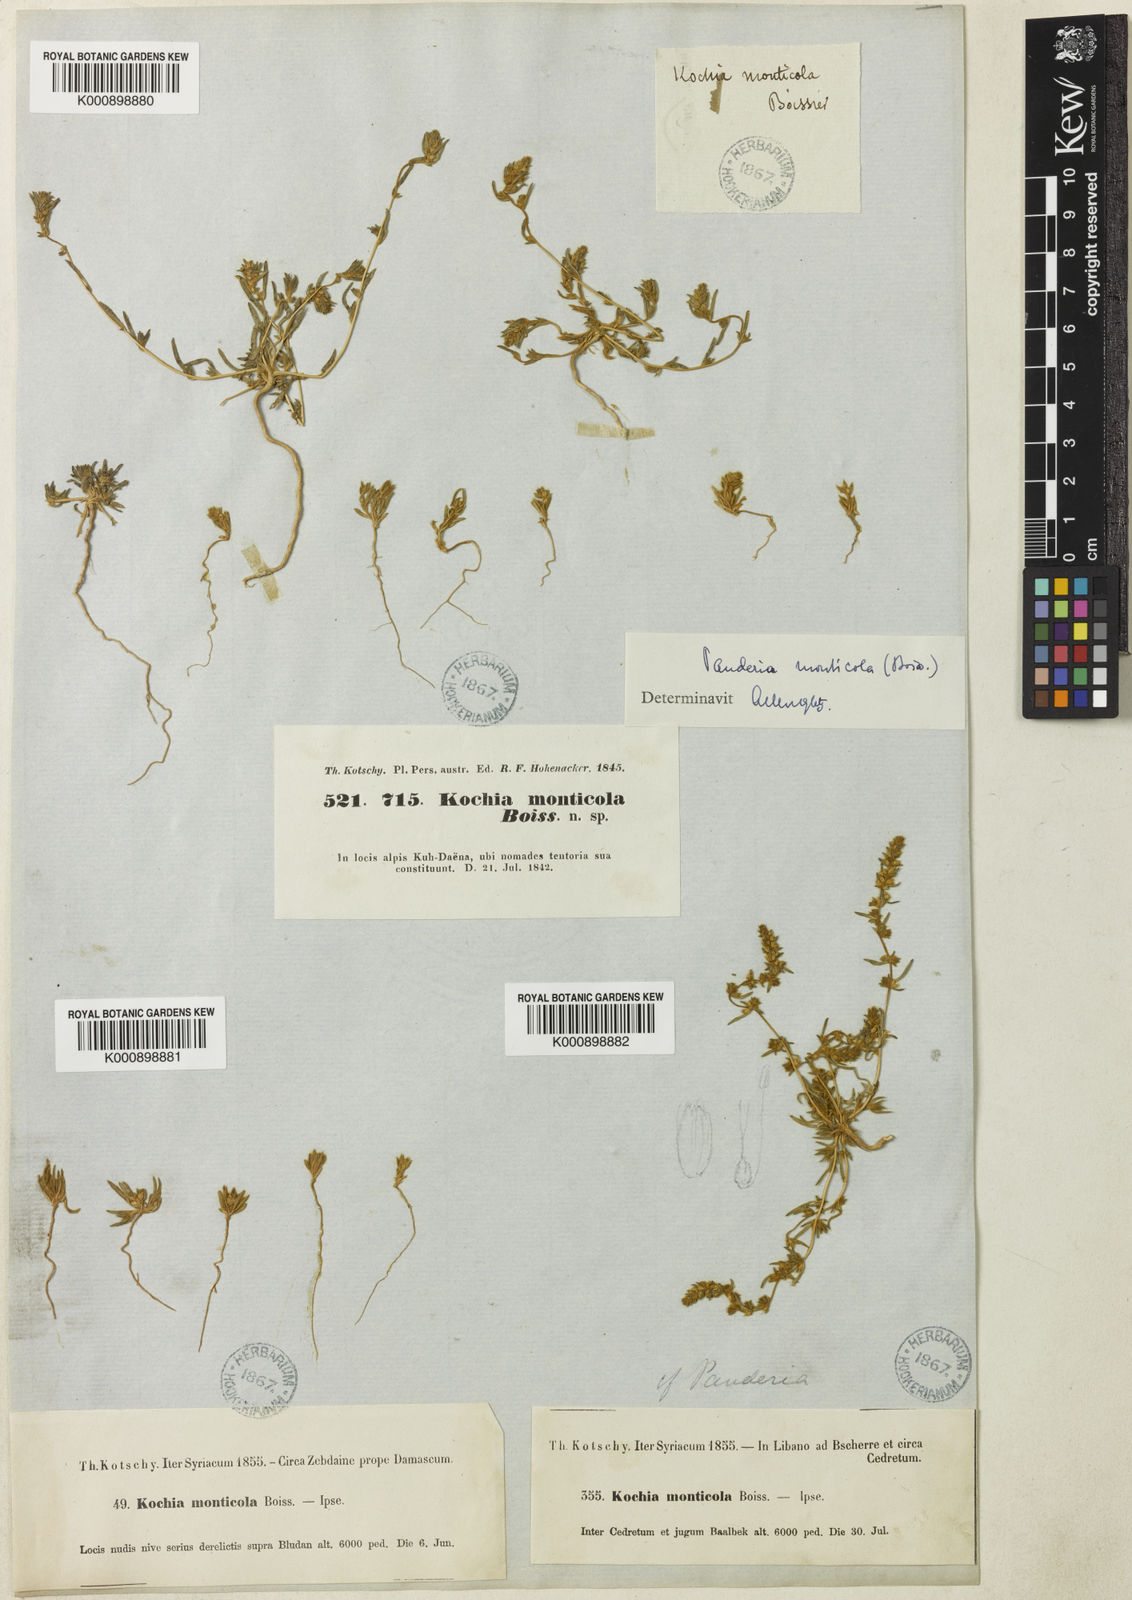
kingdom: Plantae
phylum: Tracheophyta
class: Magnoliopsida
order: Caryophyllales
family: Amaranthaceae
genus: Bassia
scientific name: Bassia
